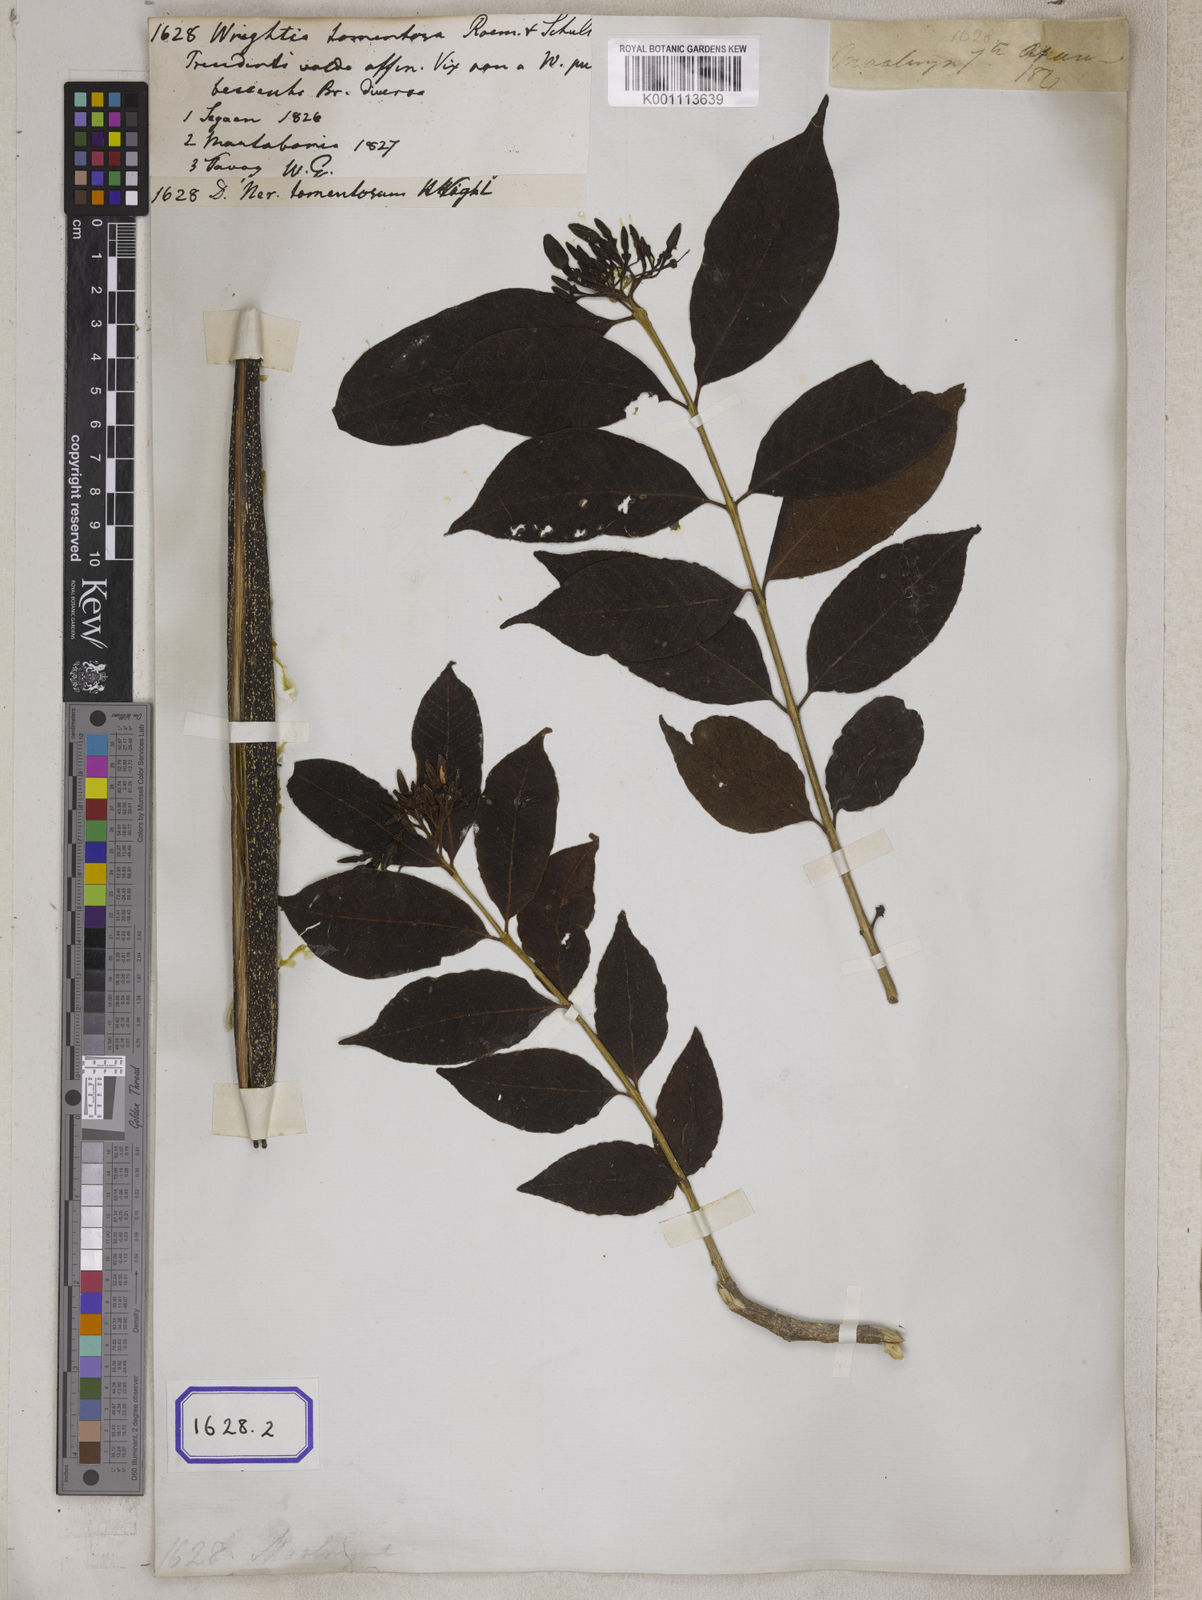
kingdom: Plantae
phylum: Tracheophyta
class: Magnoliopsida
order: Gentianales
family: Apocynaceae
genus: Wrightia
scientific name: Wrightia arborea
